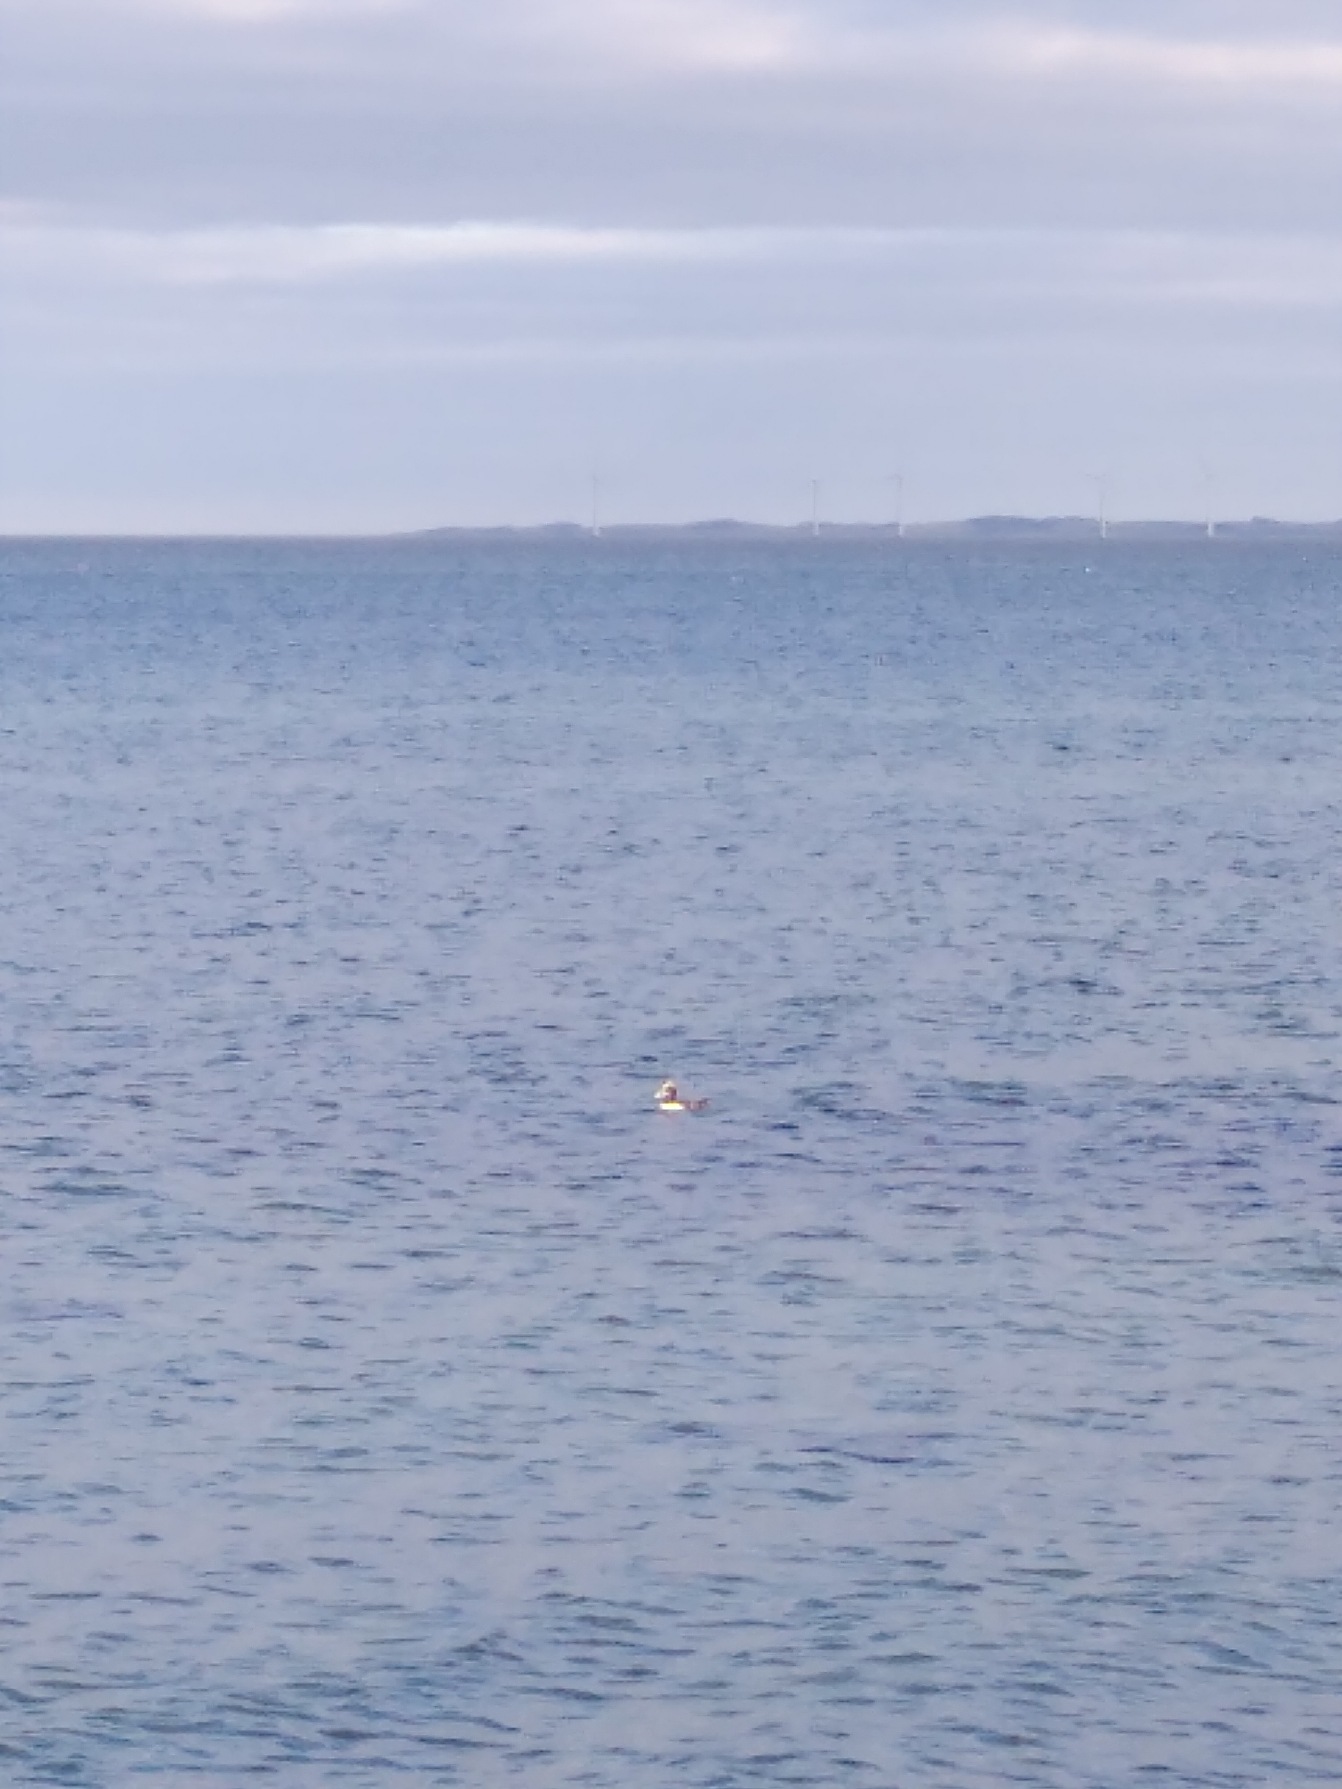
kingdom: Animalia
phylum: Chordata
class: Aves
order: Anseriformes
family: Anatidae
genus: Somateria
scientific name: Somateria mollissima
